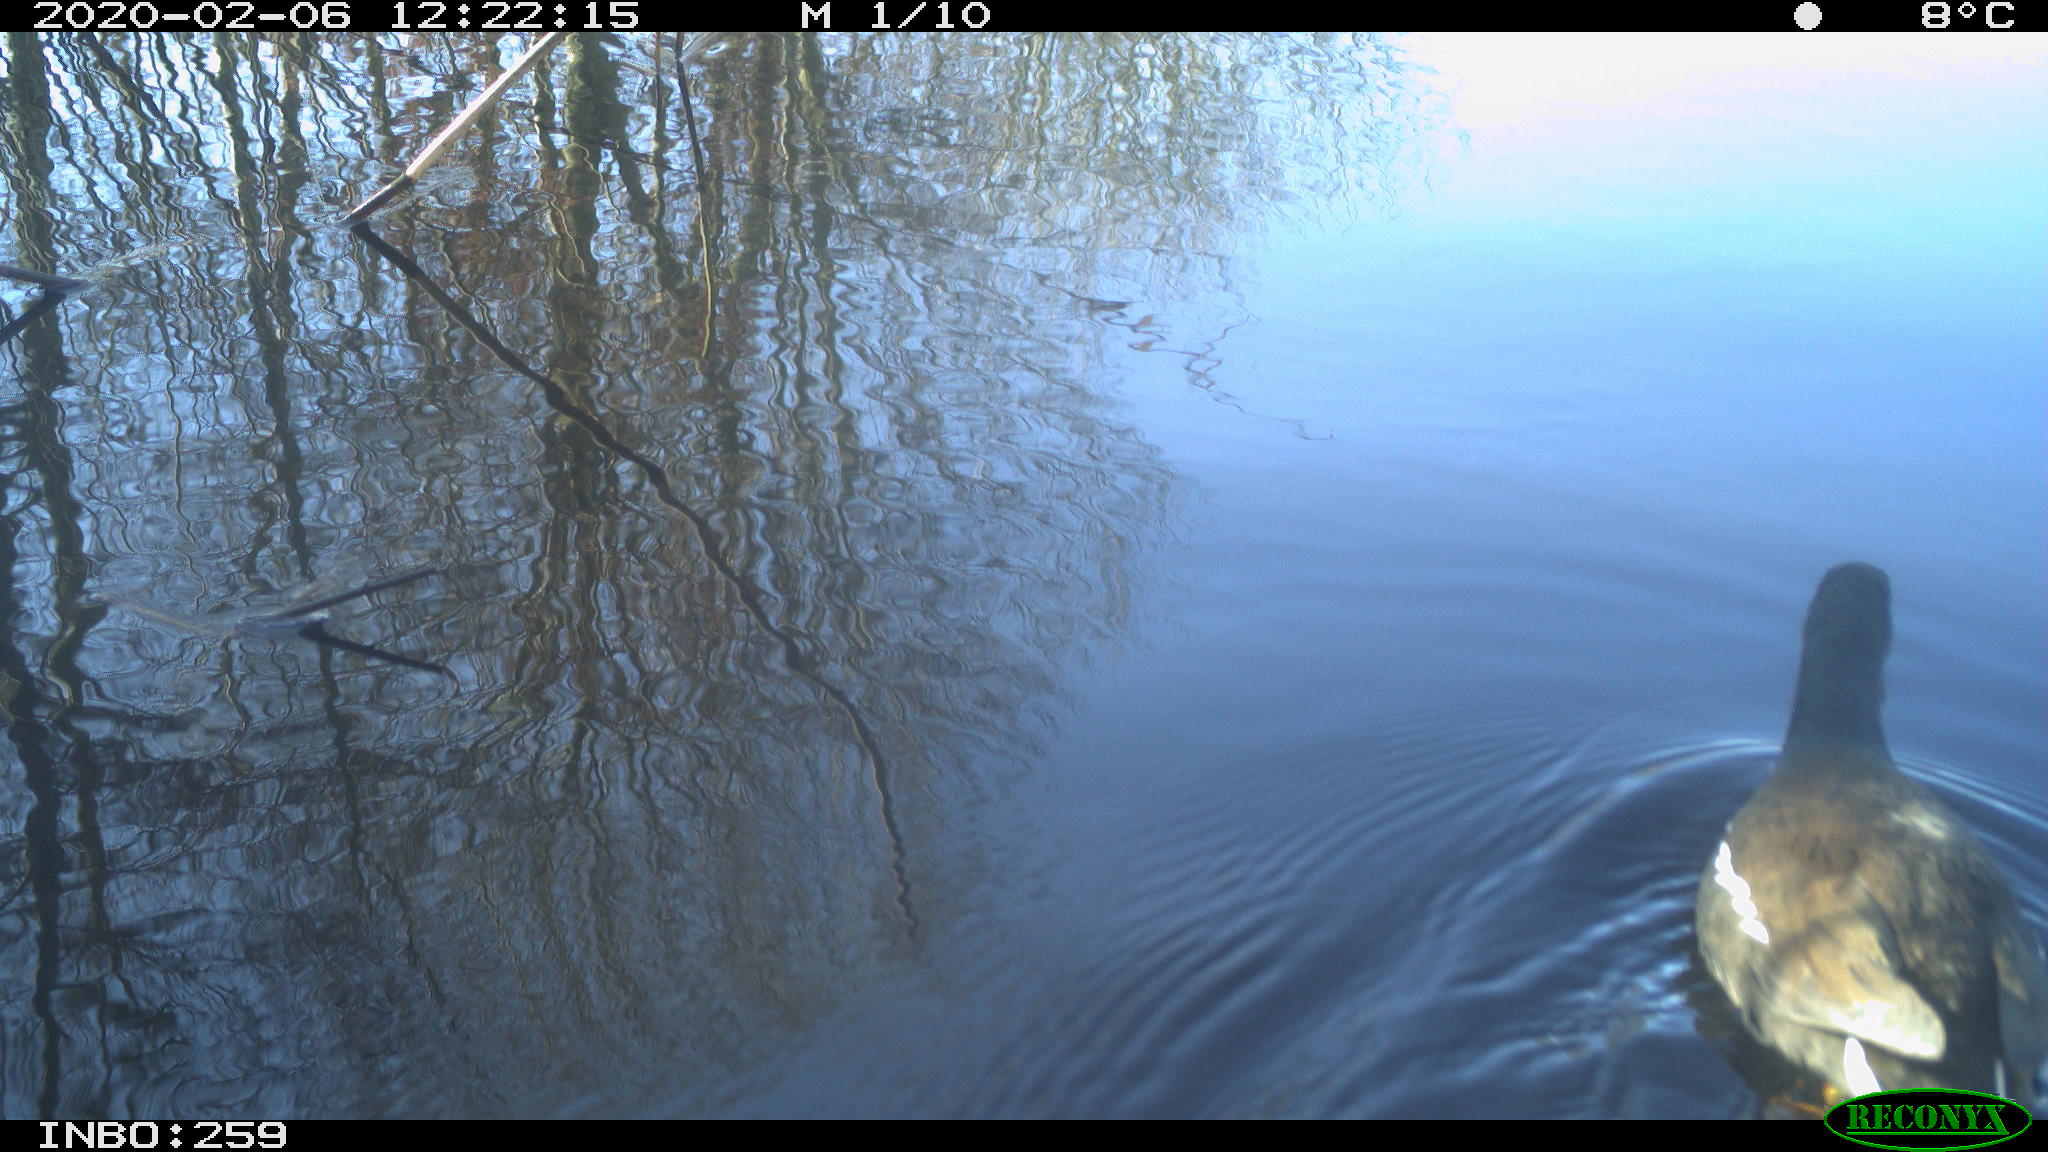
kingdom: Animalia
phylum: Chordata
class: Aves
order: Gruiformes
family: Rallidae
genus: Gallinula
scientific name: Gallinula chloropus
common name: Common moorhen
